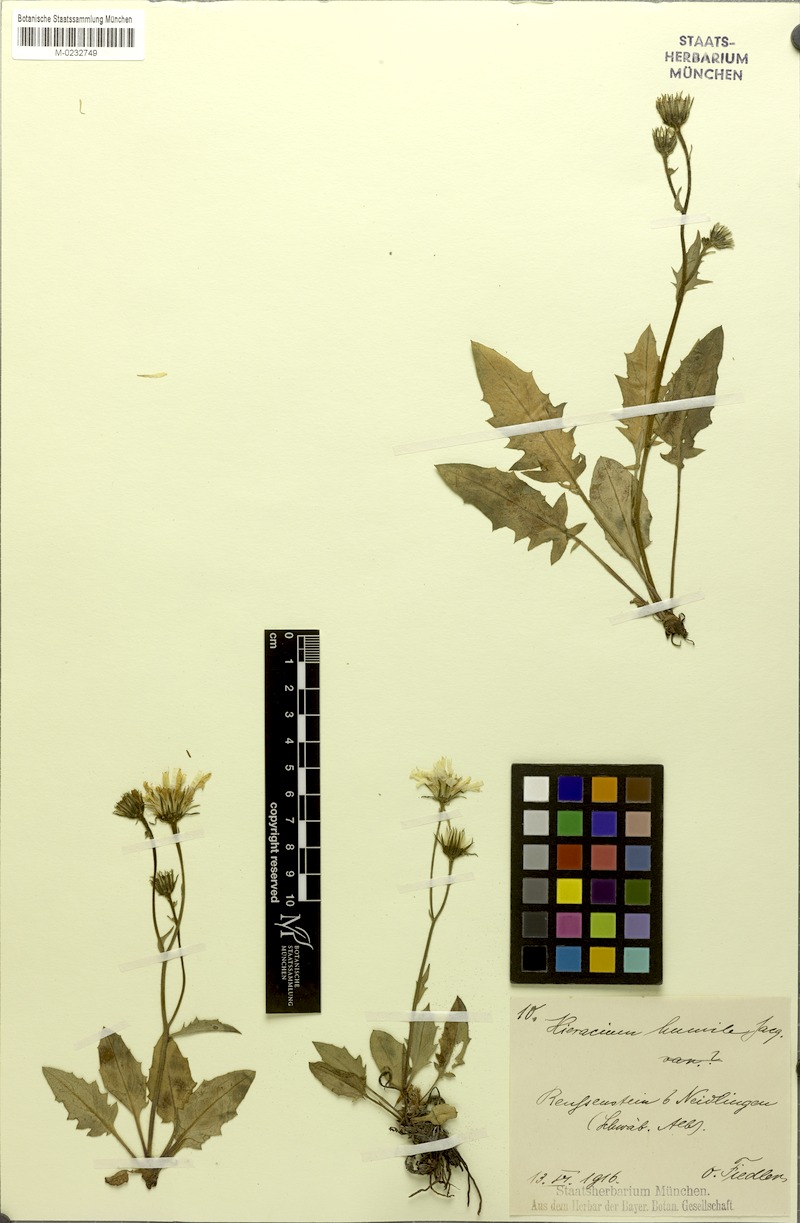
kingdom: Plantae
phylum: Tracheophyta
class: Magnoliopsida
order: Asterales
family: Asteraceae
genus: Hieracium
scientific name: Hieracium humile
